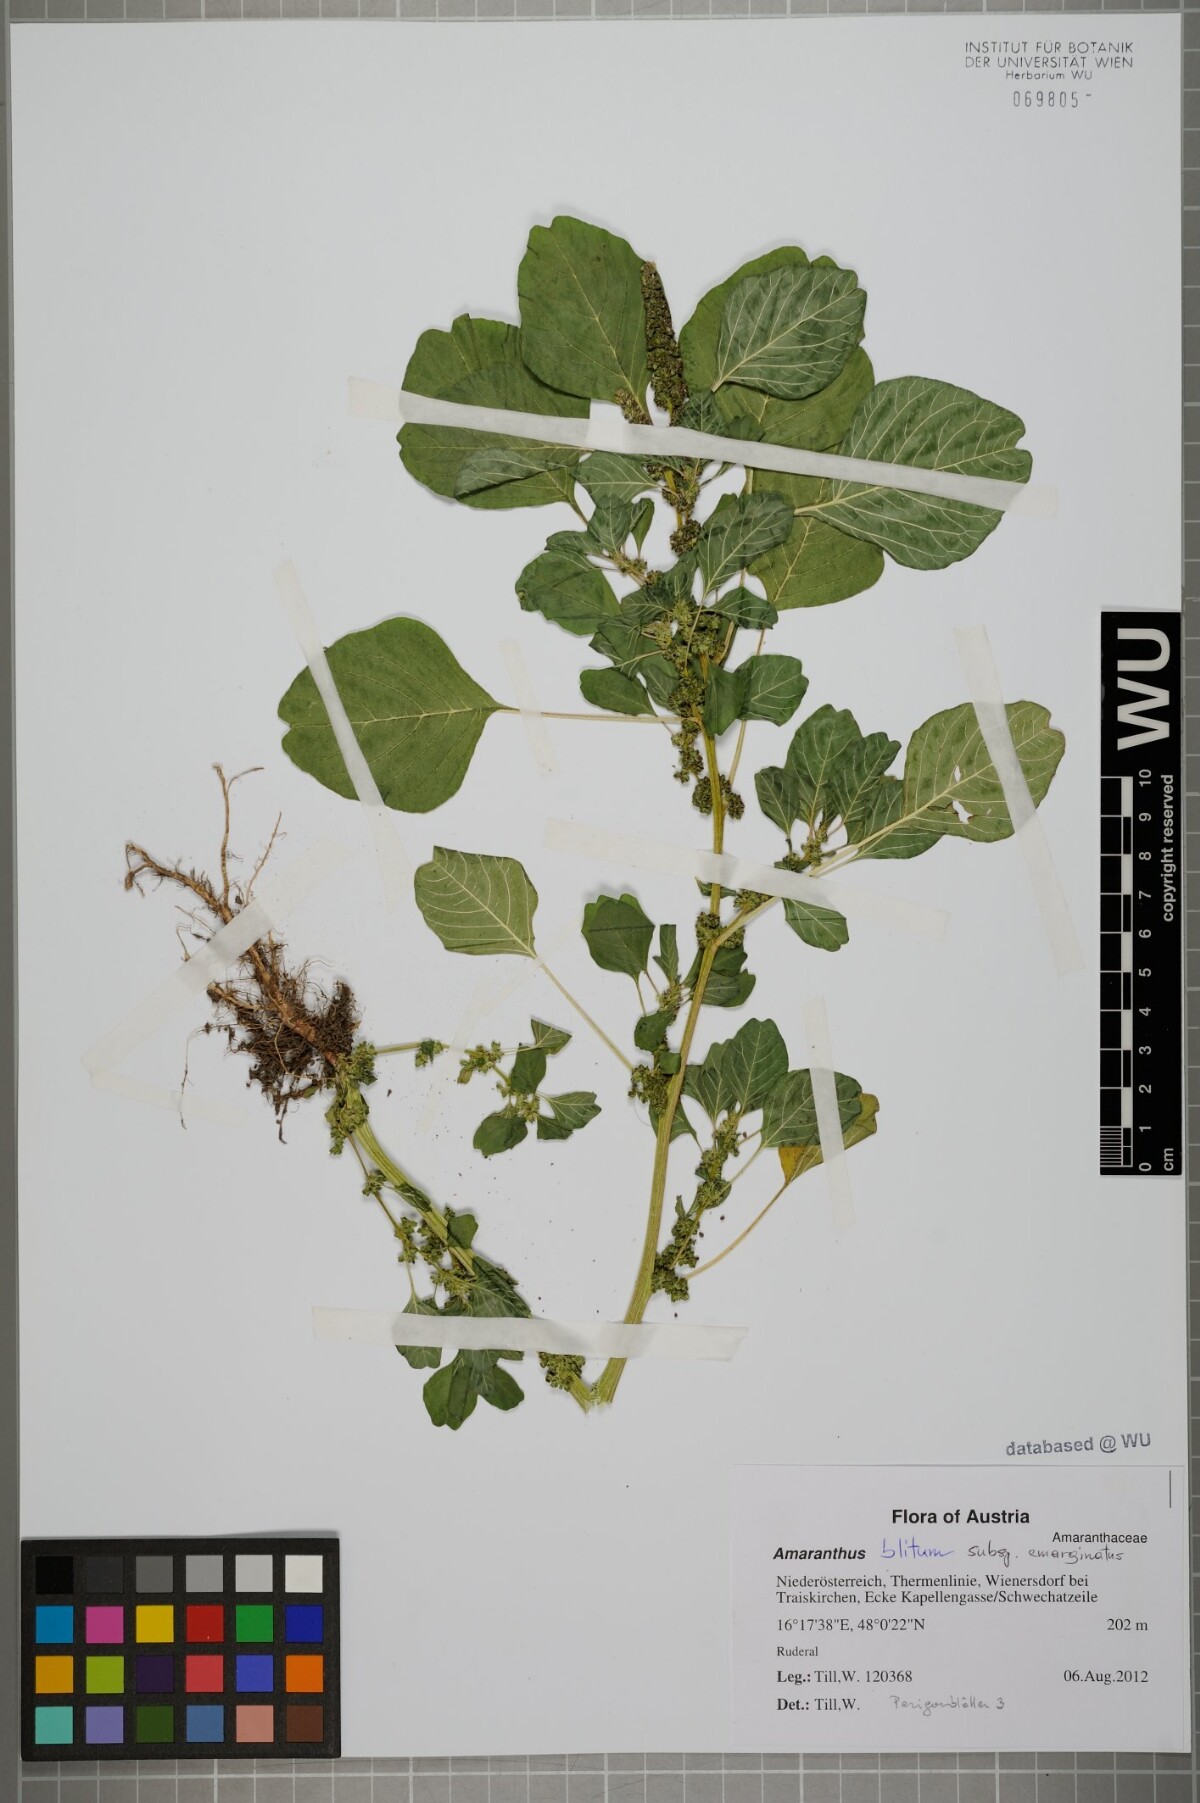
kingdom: Plantae
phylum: Tracheophyta
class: Magnoliopsida
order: Caryophyllales
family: Amaranthaceae
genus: Amaranthus
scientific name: Amaranthus emarginatus
